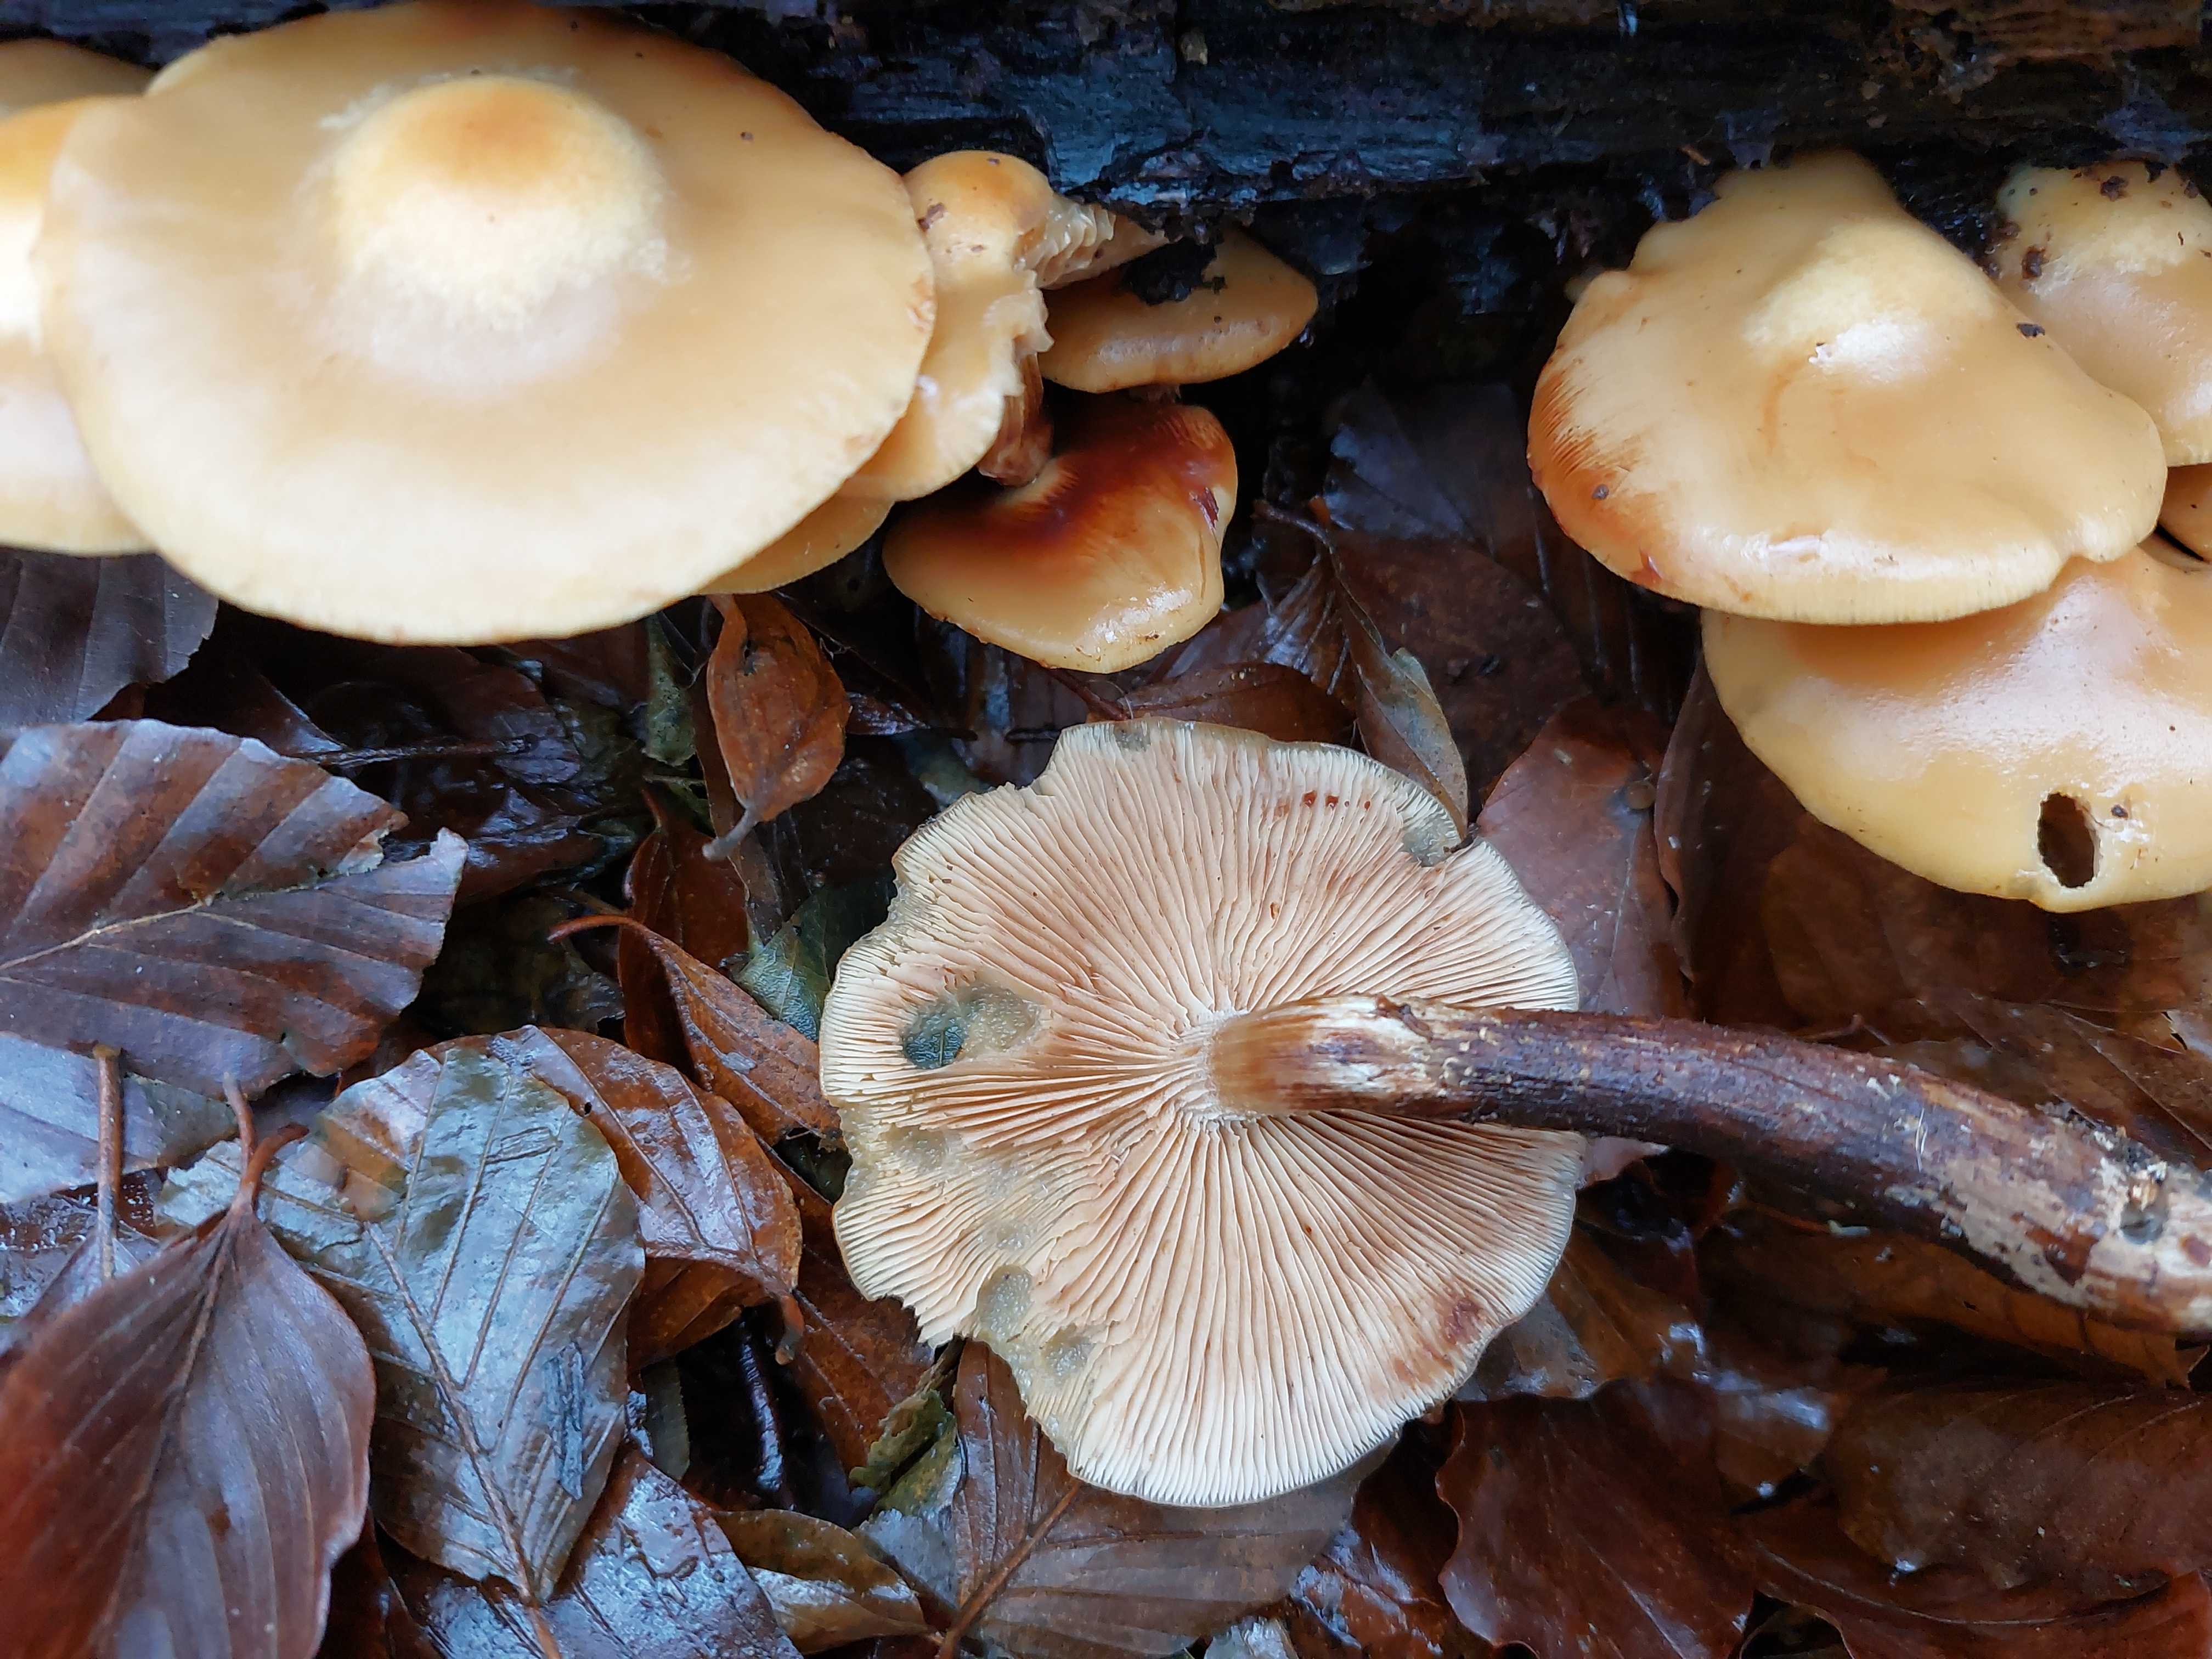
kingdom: Fungi
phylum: Basidiomycota
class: Agaricomycetes
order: Agaricales
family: Strophariaceae
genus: Kuehneromyces
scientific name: Kuehneromyces mutabilis
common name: foranderlig skælhat
